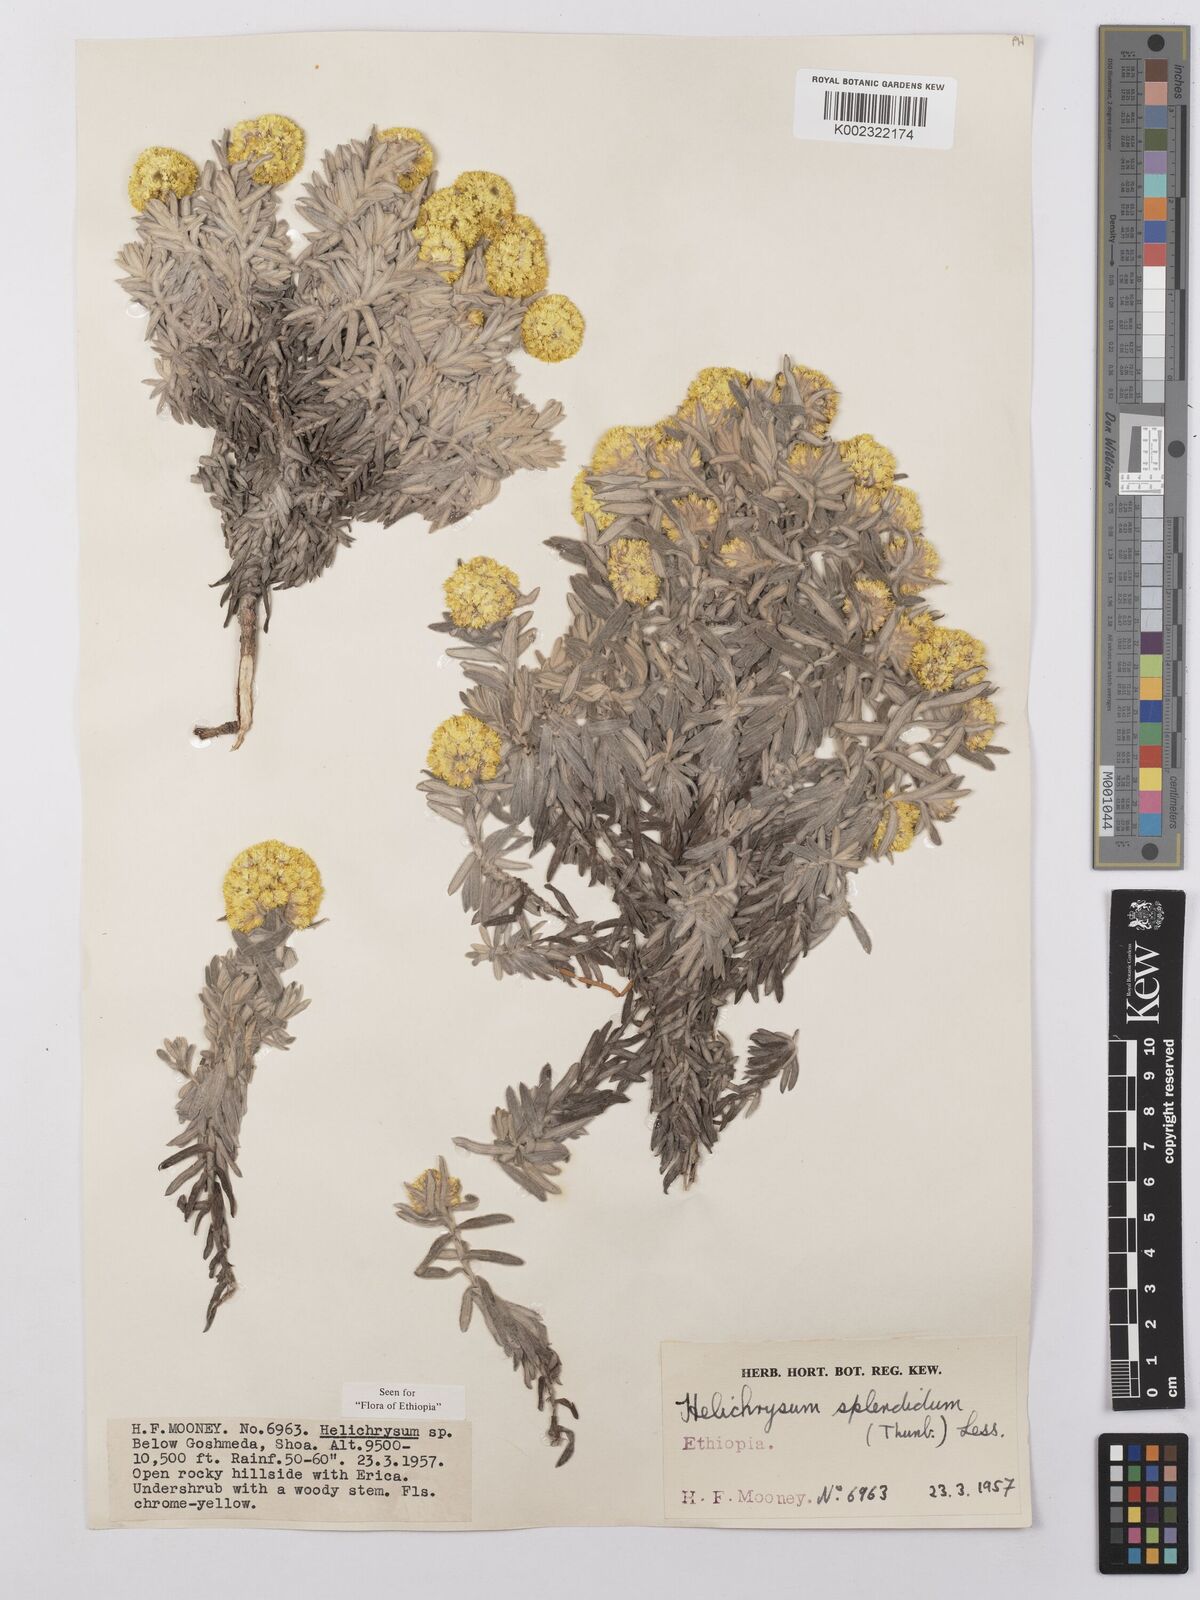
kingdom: Plantae
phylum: Tracheophyta
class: Magnoliopsida
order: Asterales
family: Asteraceae
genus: Helichrysum
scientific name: Helichrysum splendidum
